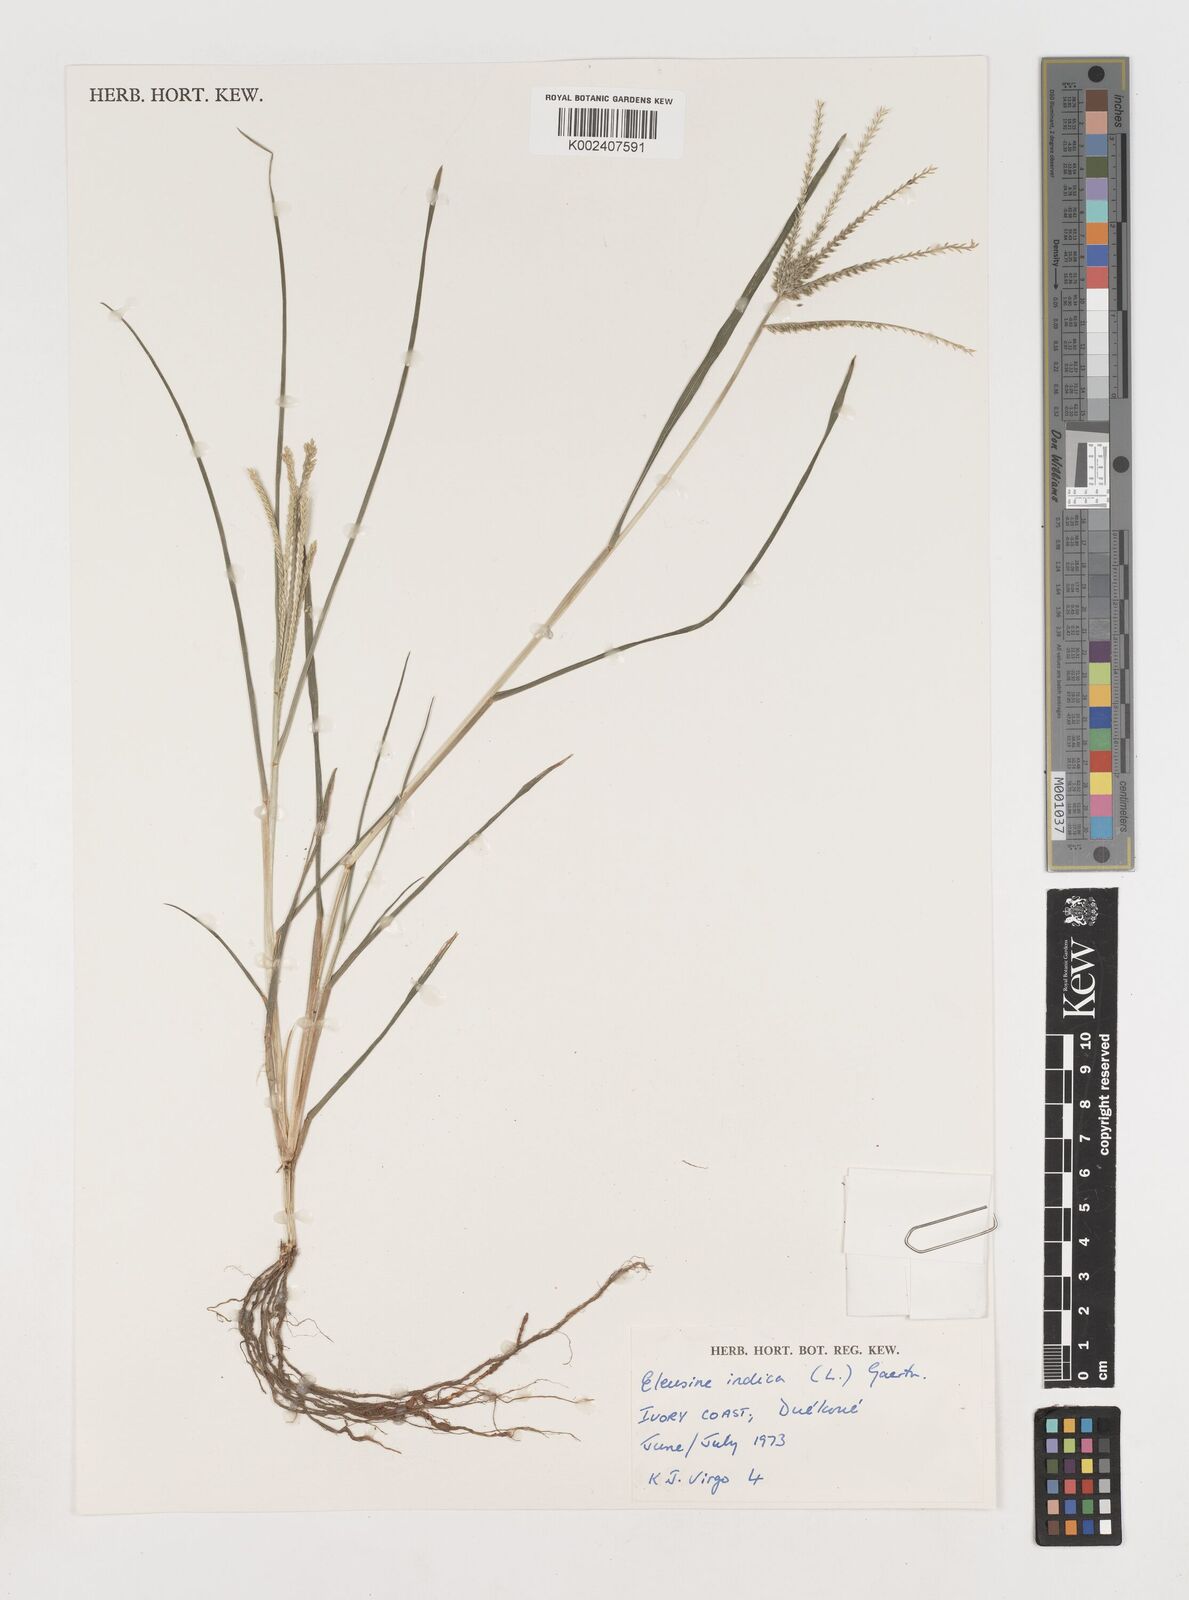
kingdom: Plantae
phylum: Tracheophyta
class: Liliopsida
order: Poales
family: Poaceae
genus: Eleusine
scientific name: Eleusine indica
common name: Yard-grass
